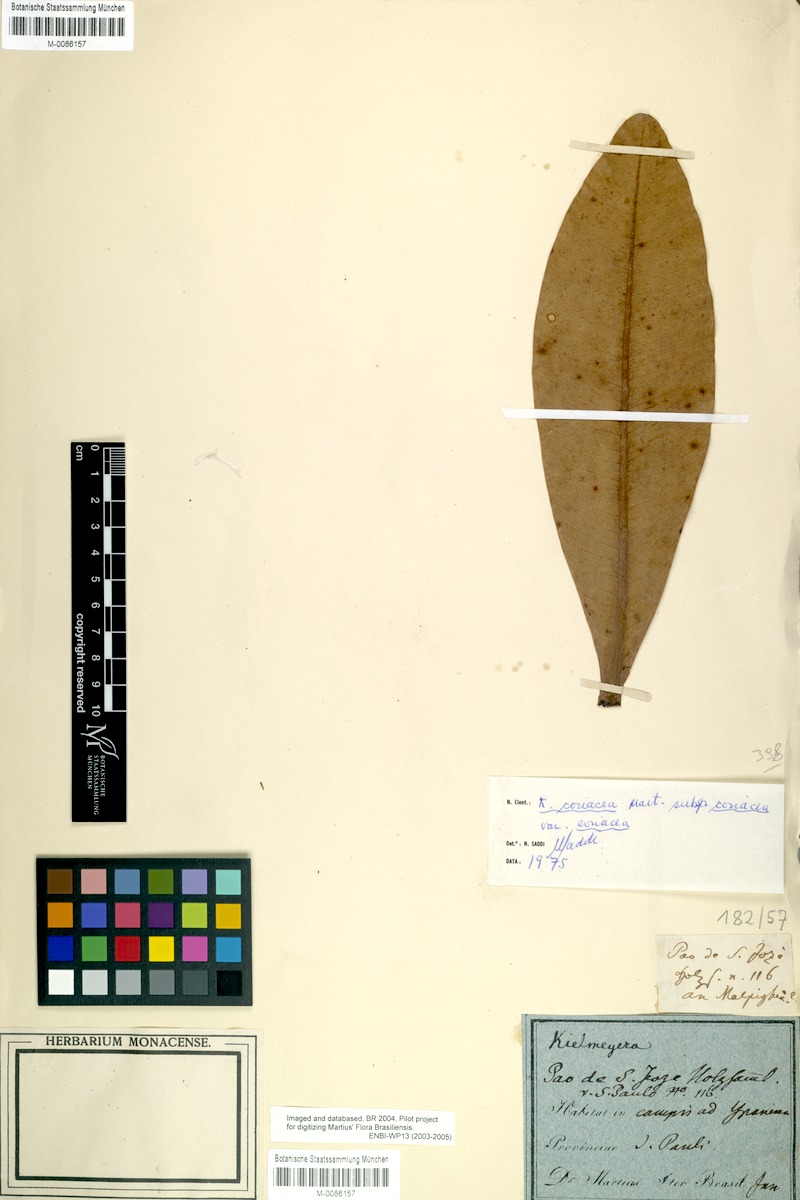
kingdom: Plantae
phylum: Tracheophyta
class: Magnoliopsida
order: Malpighiales
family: Calophyllaceae
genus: Kielmeyera
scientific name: Kielmeyera coriacea
